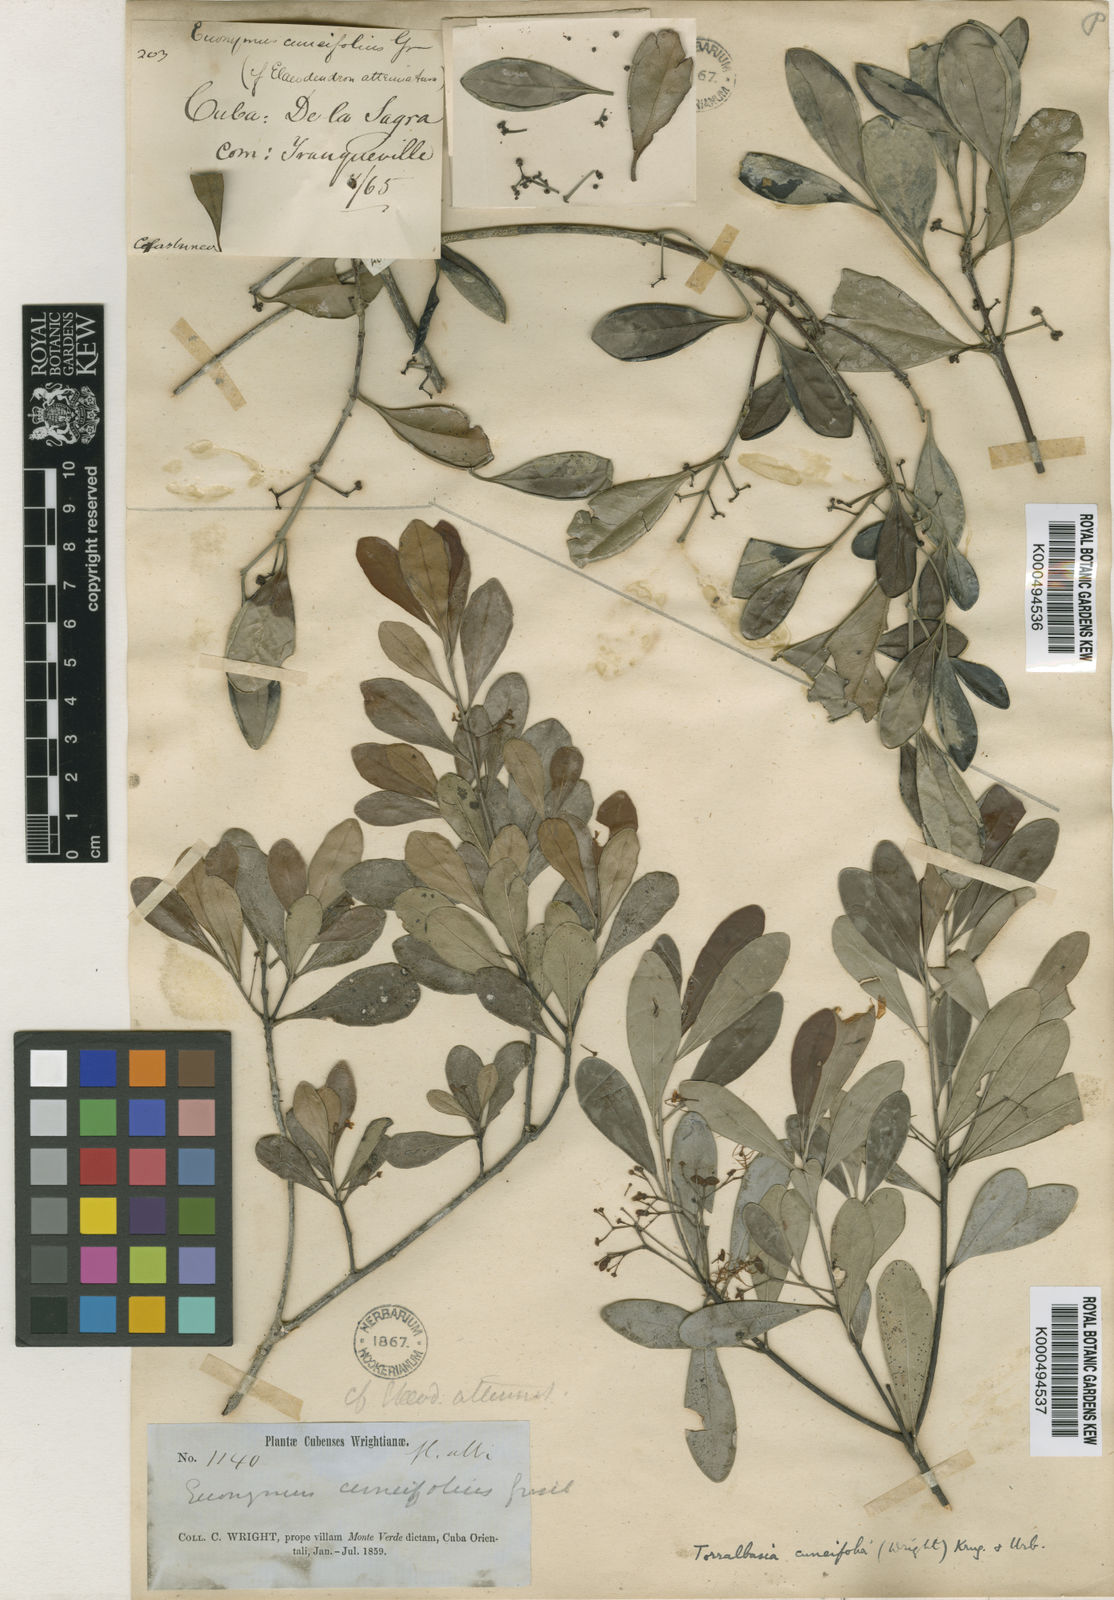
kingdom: Plantae
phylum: Tracheophyta
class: Magnoliopsida
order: Celastrales
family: Celastraceae
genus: Torralbasia
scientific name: Torralbasia cuneifolia
